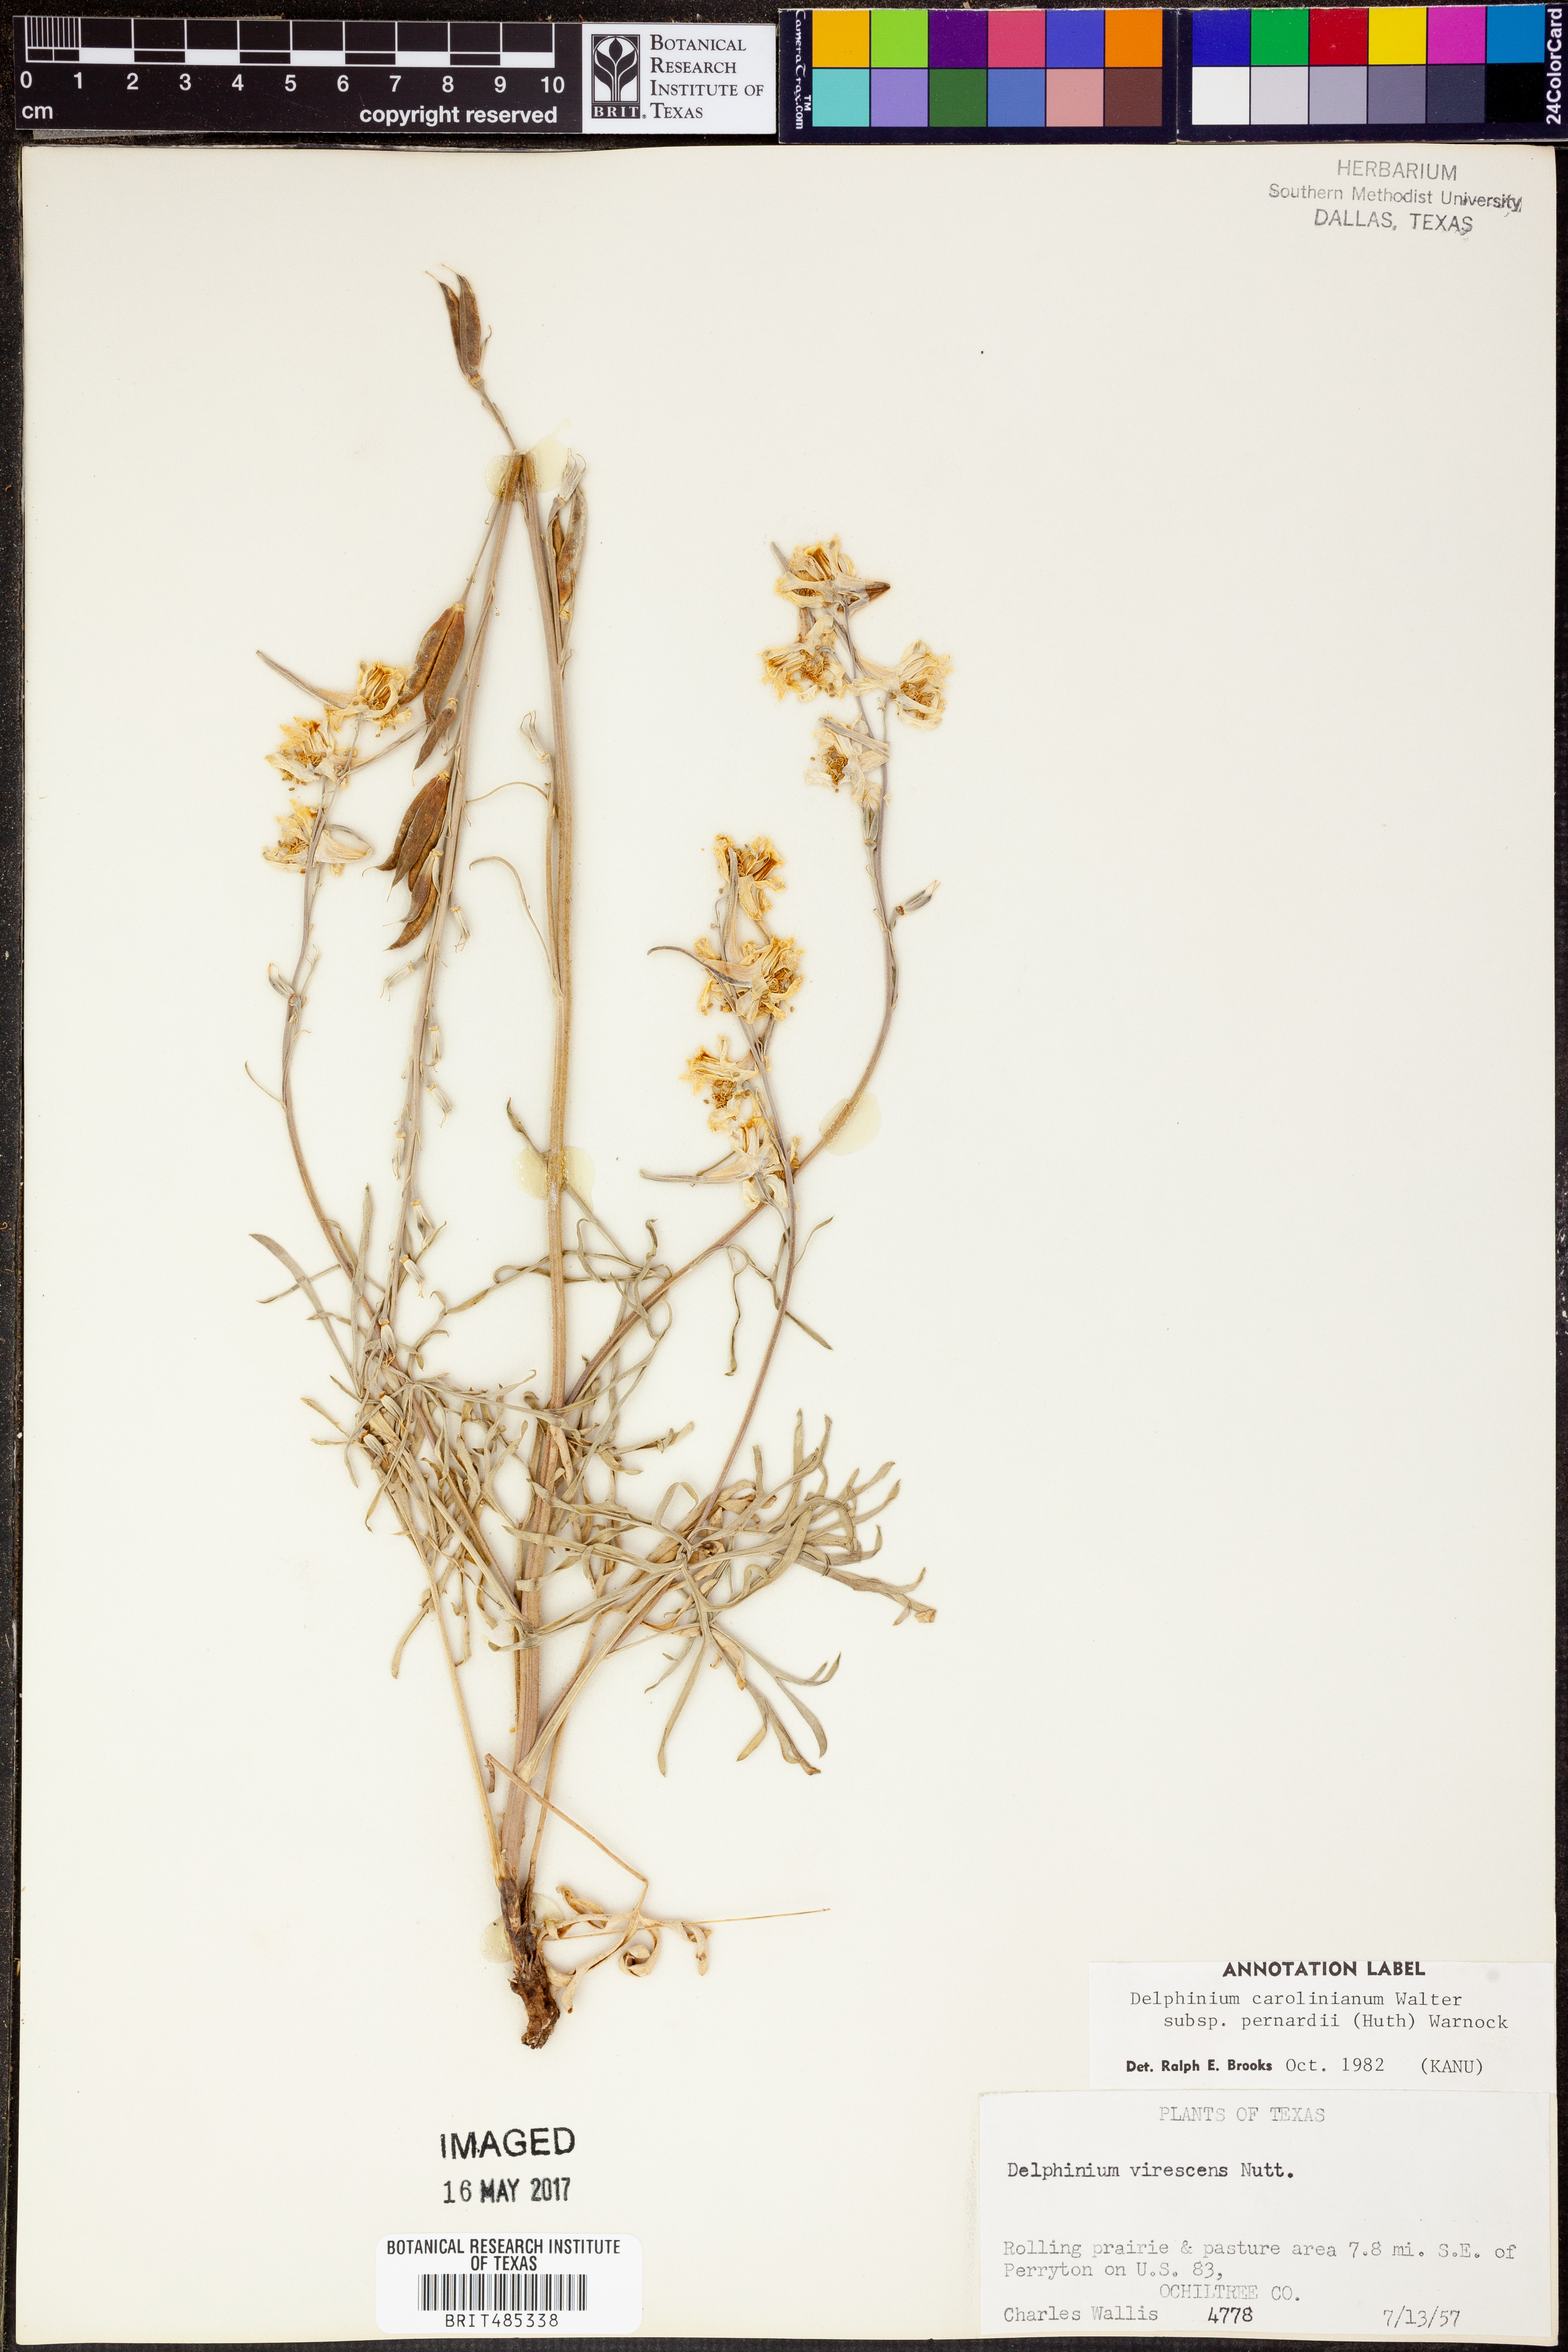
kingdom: Plantae
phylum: Tracheophyta
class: Magnoliopsida
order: Ranunculales
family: Ranunculaceae
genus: Delphinium
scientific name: Delphinium carolinianum
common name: Carolina larkspur
